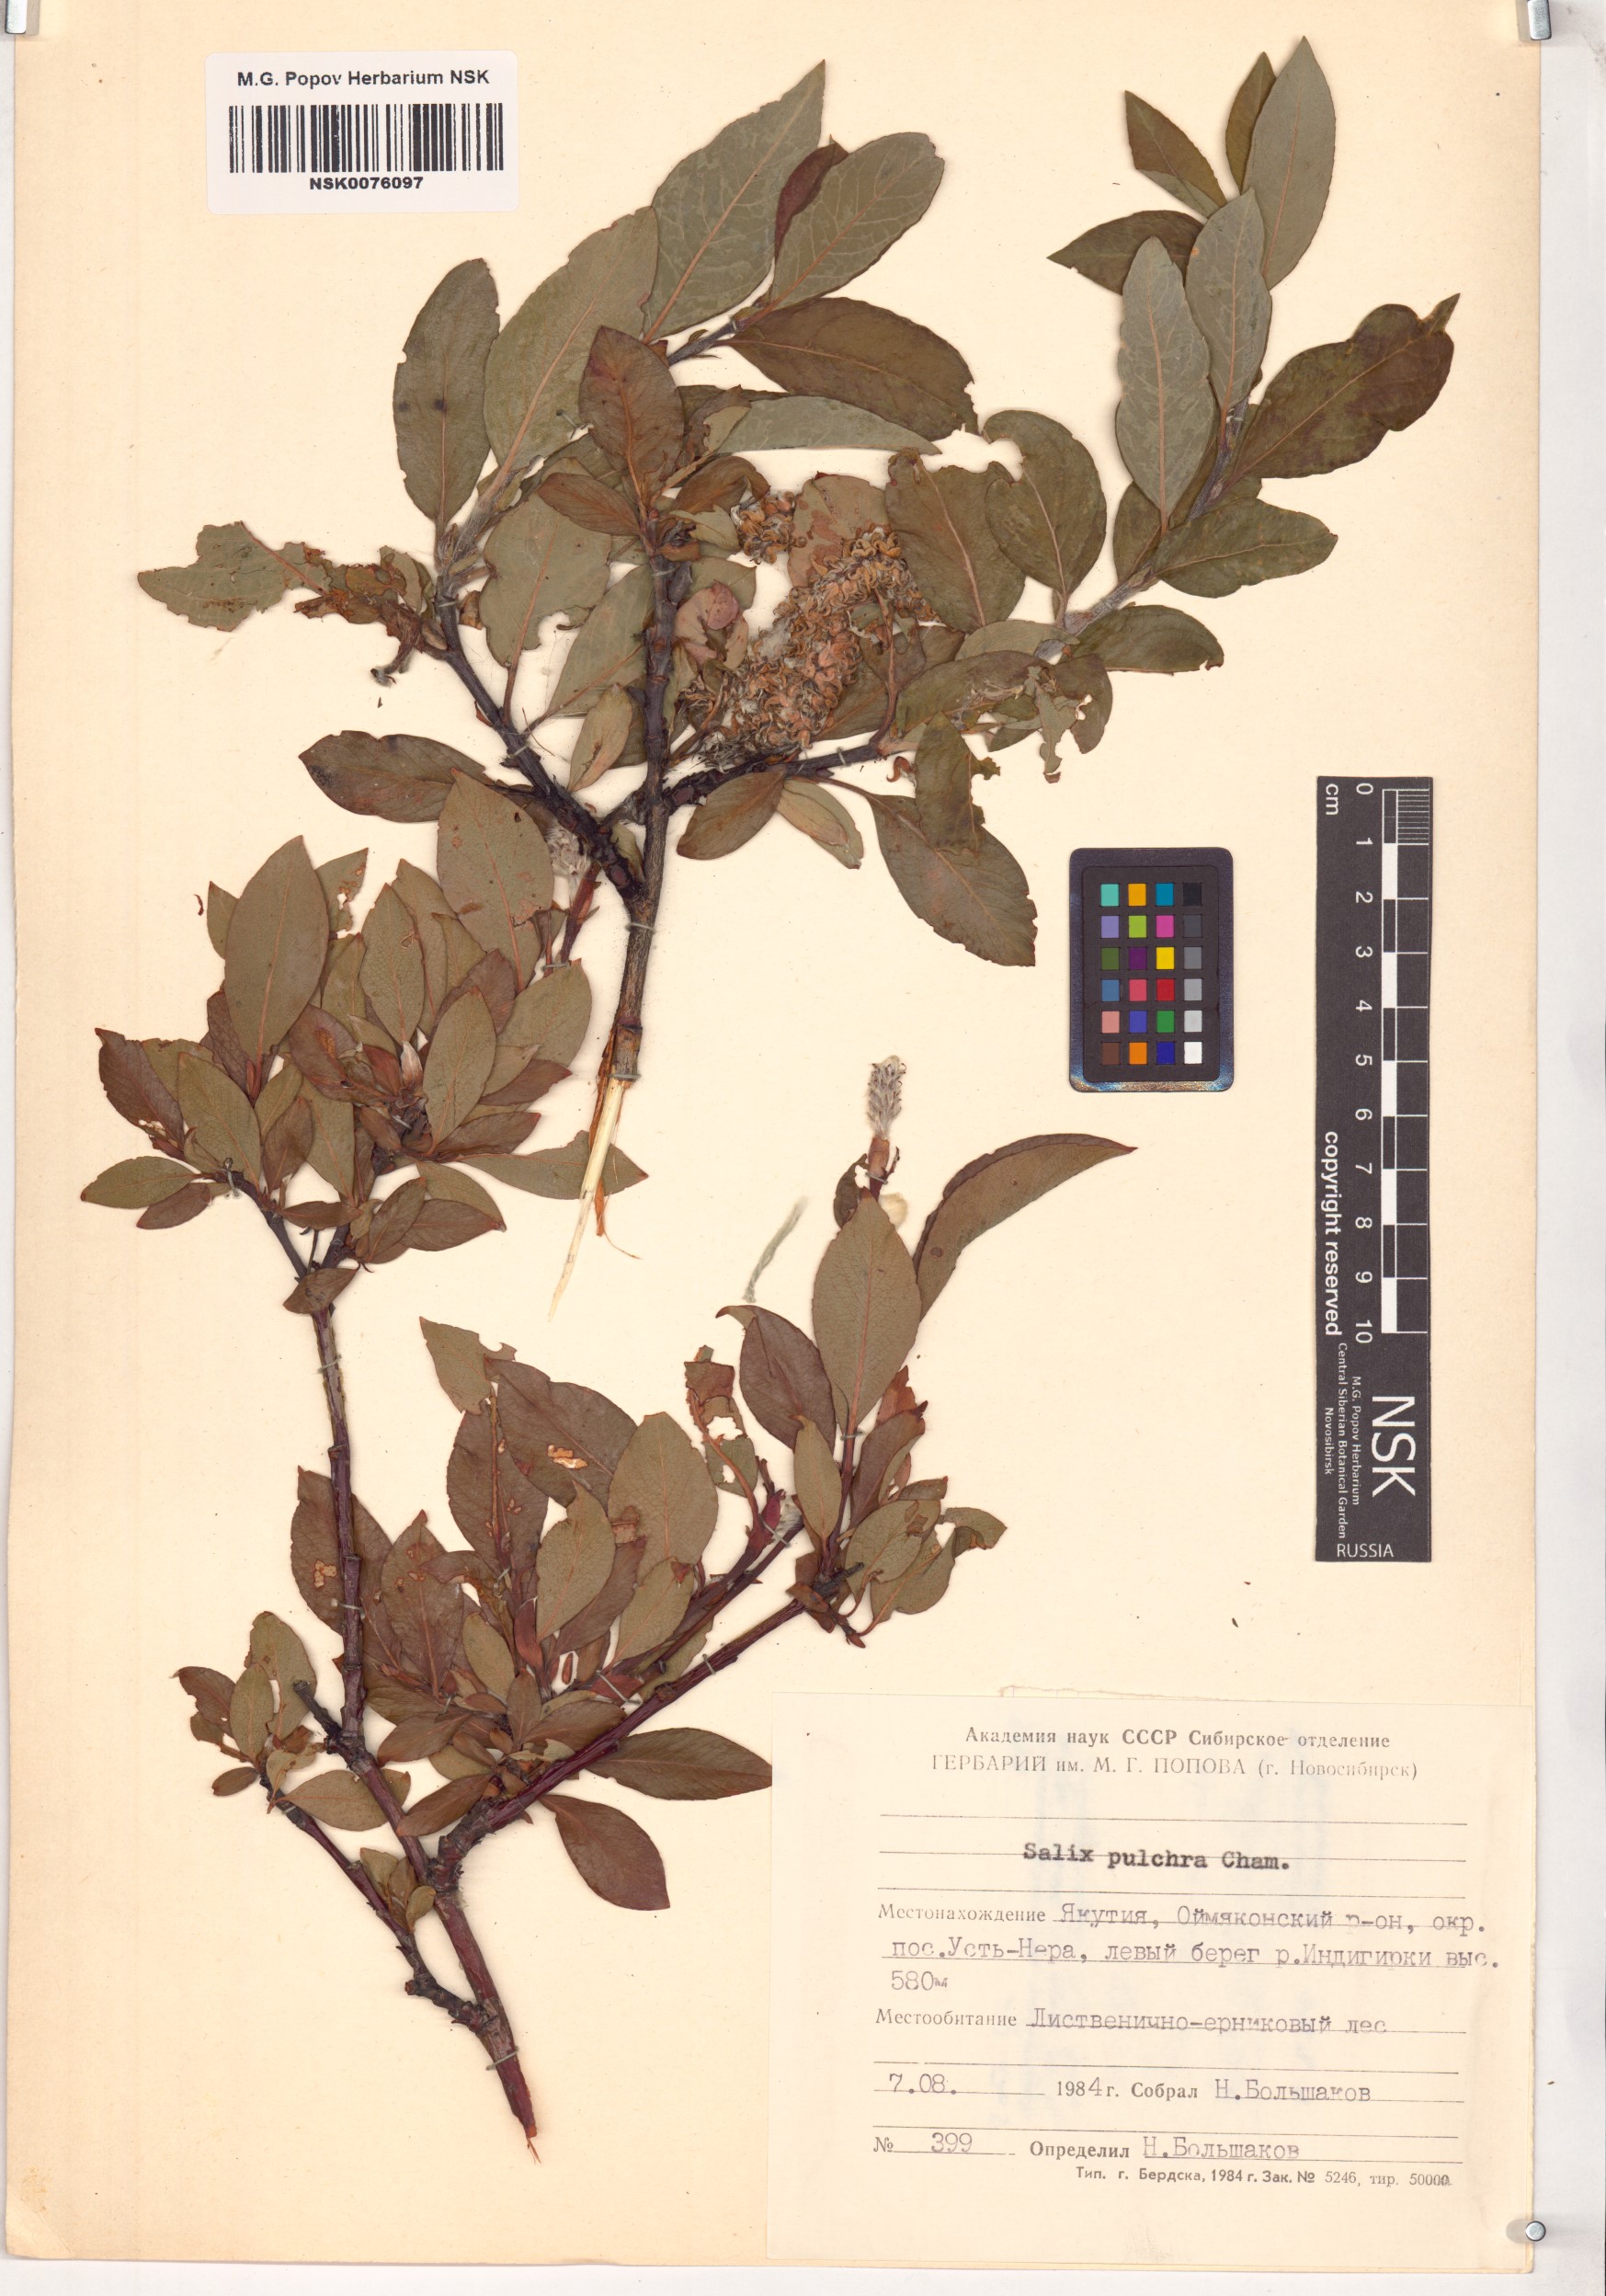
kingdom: Plantae
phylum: Tracheophyta
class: Magnoliopsida
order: Malpighiales
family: Salicaceae
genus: Salix
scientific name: Salix pulchra
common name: Diamond-leaved willow
